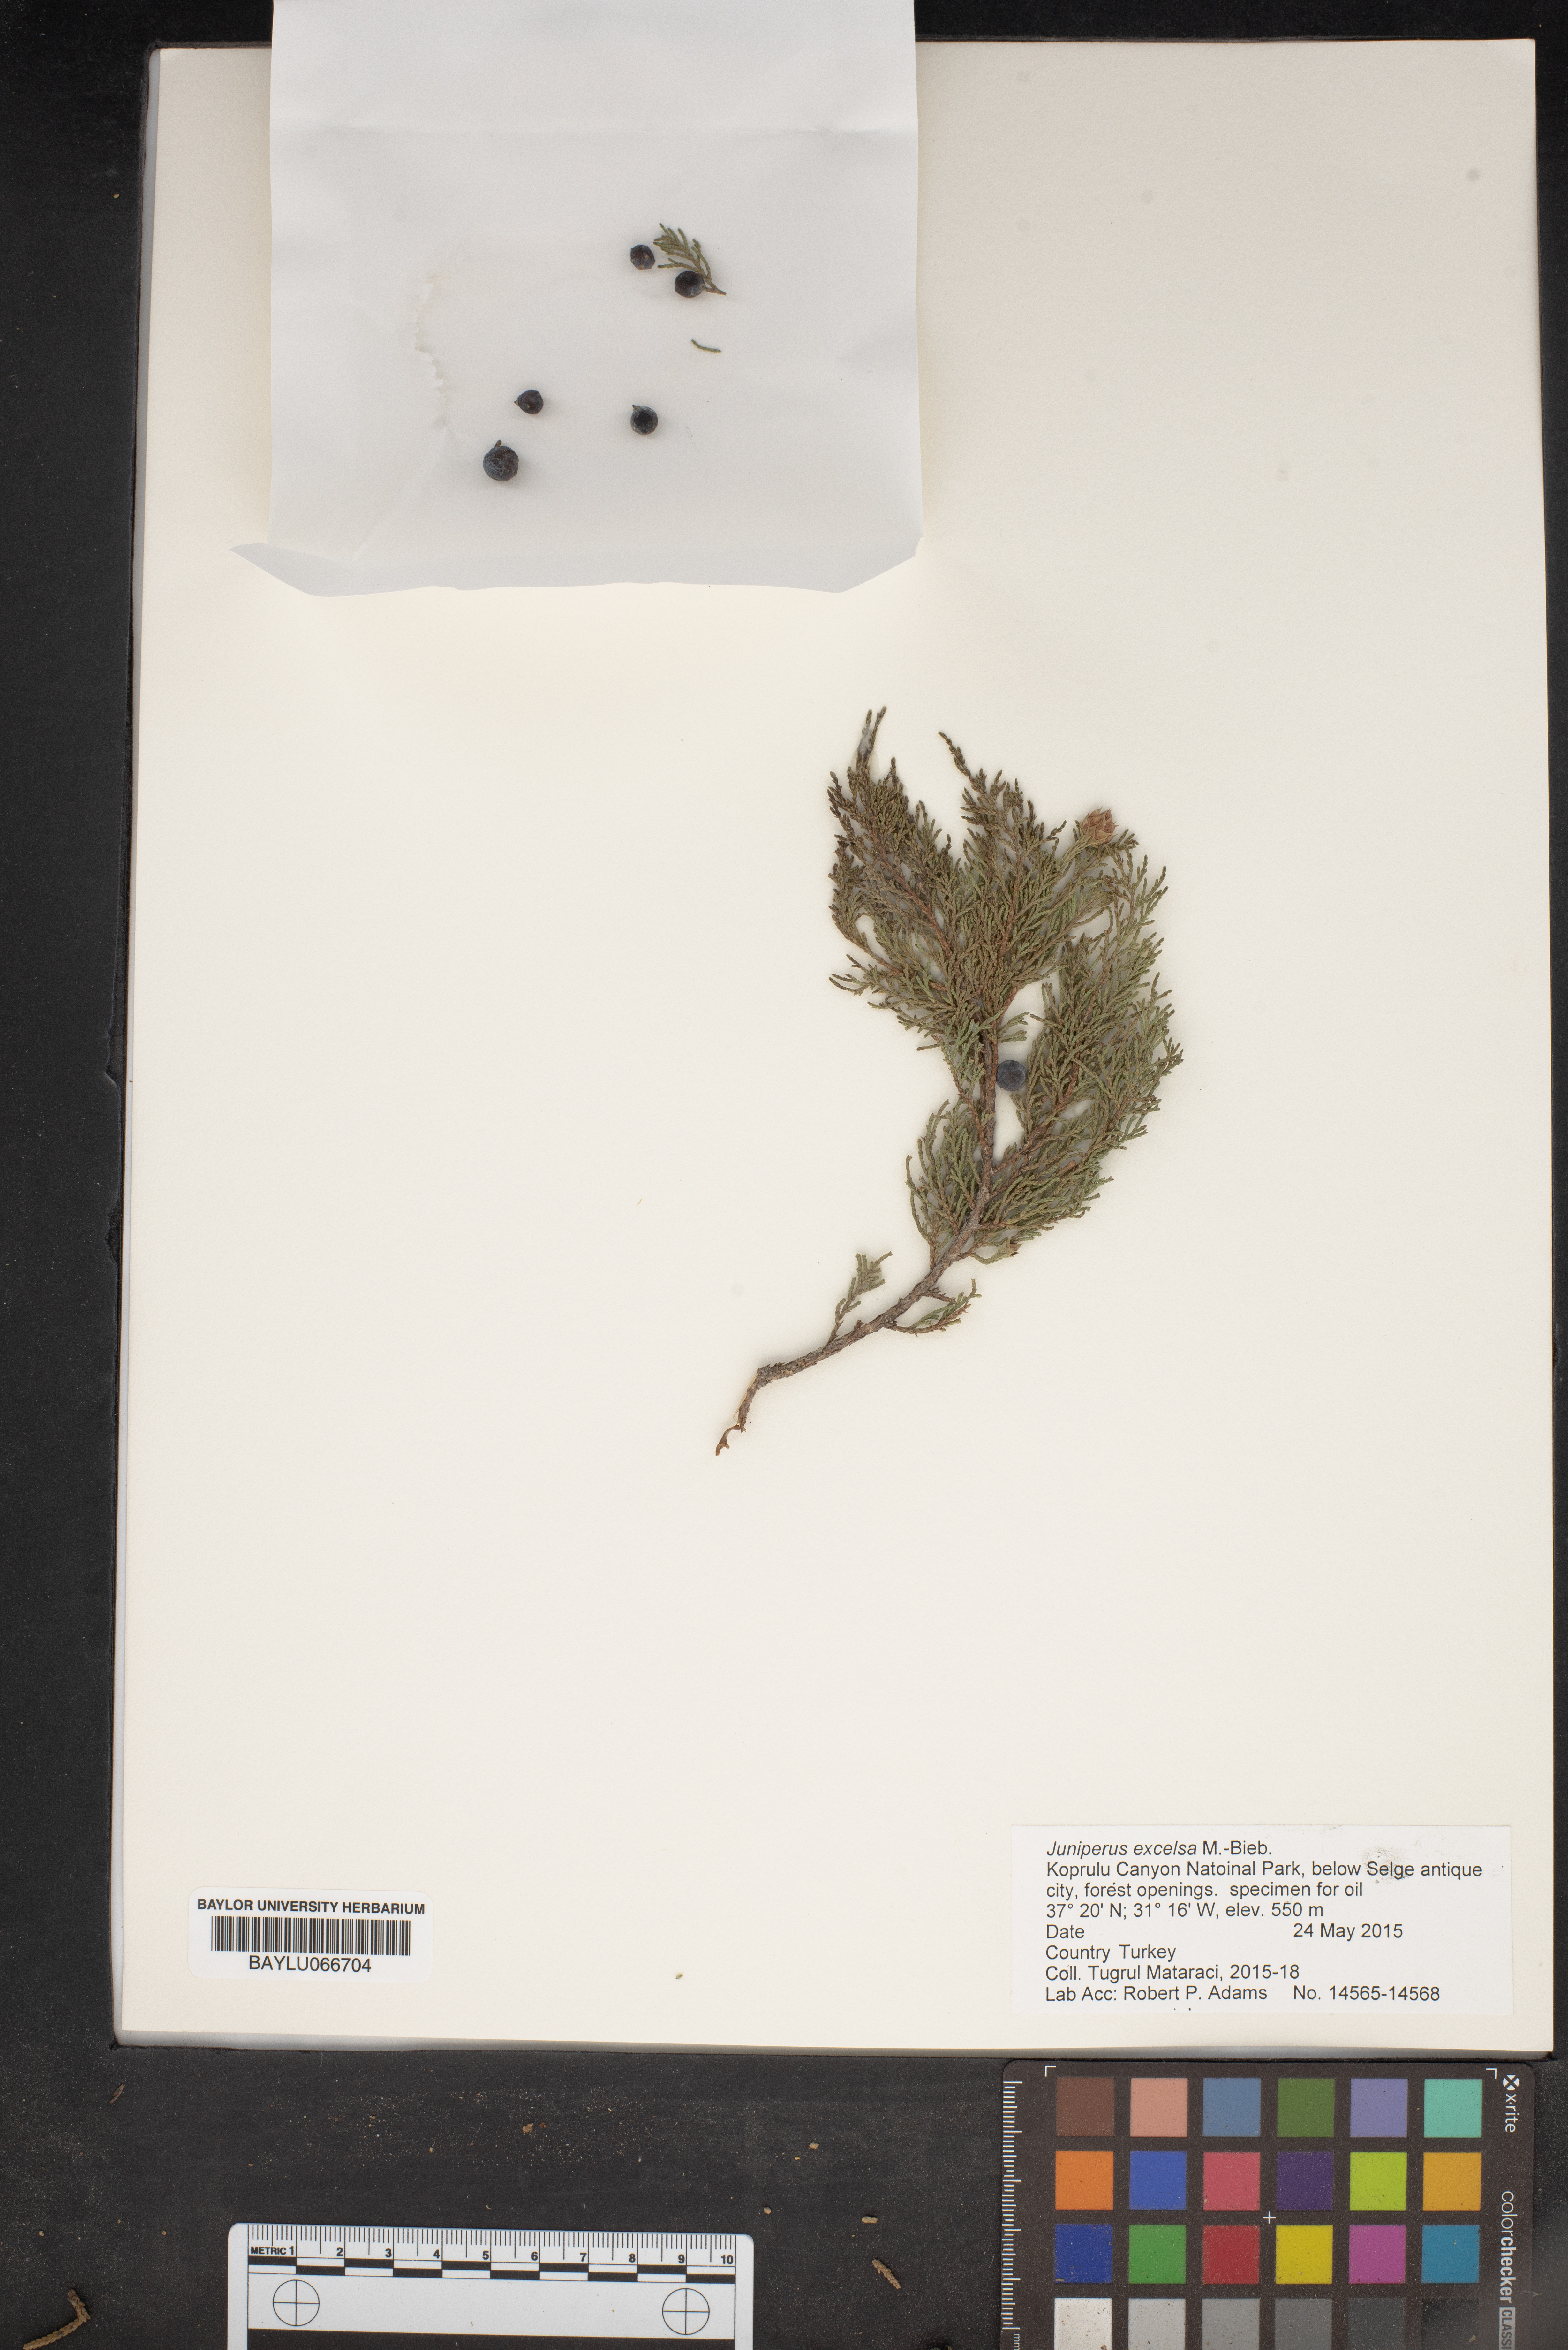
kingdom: Plantae
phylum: Tracheophyta
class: Pinopsida
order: Pinales
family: Cupressaceae
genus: Juniperus
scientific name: Juniperus excelsa
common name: Crimean juniper
